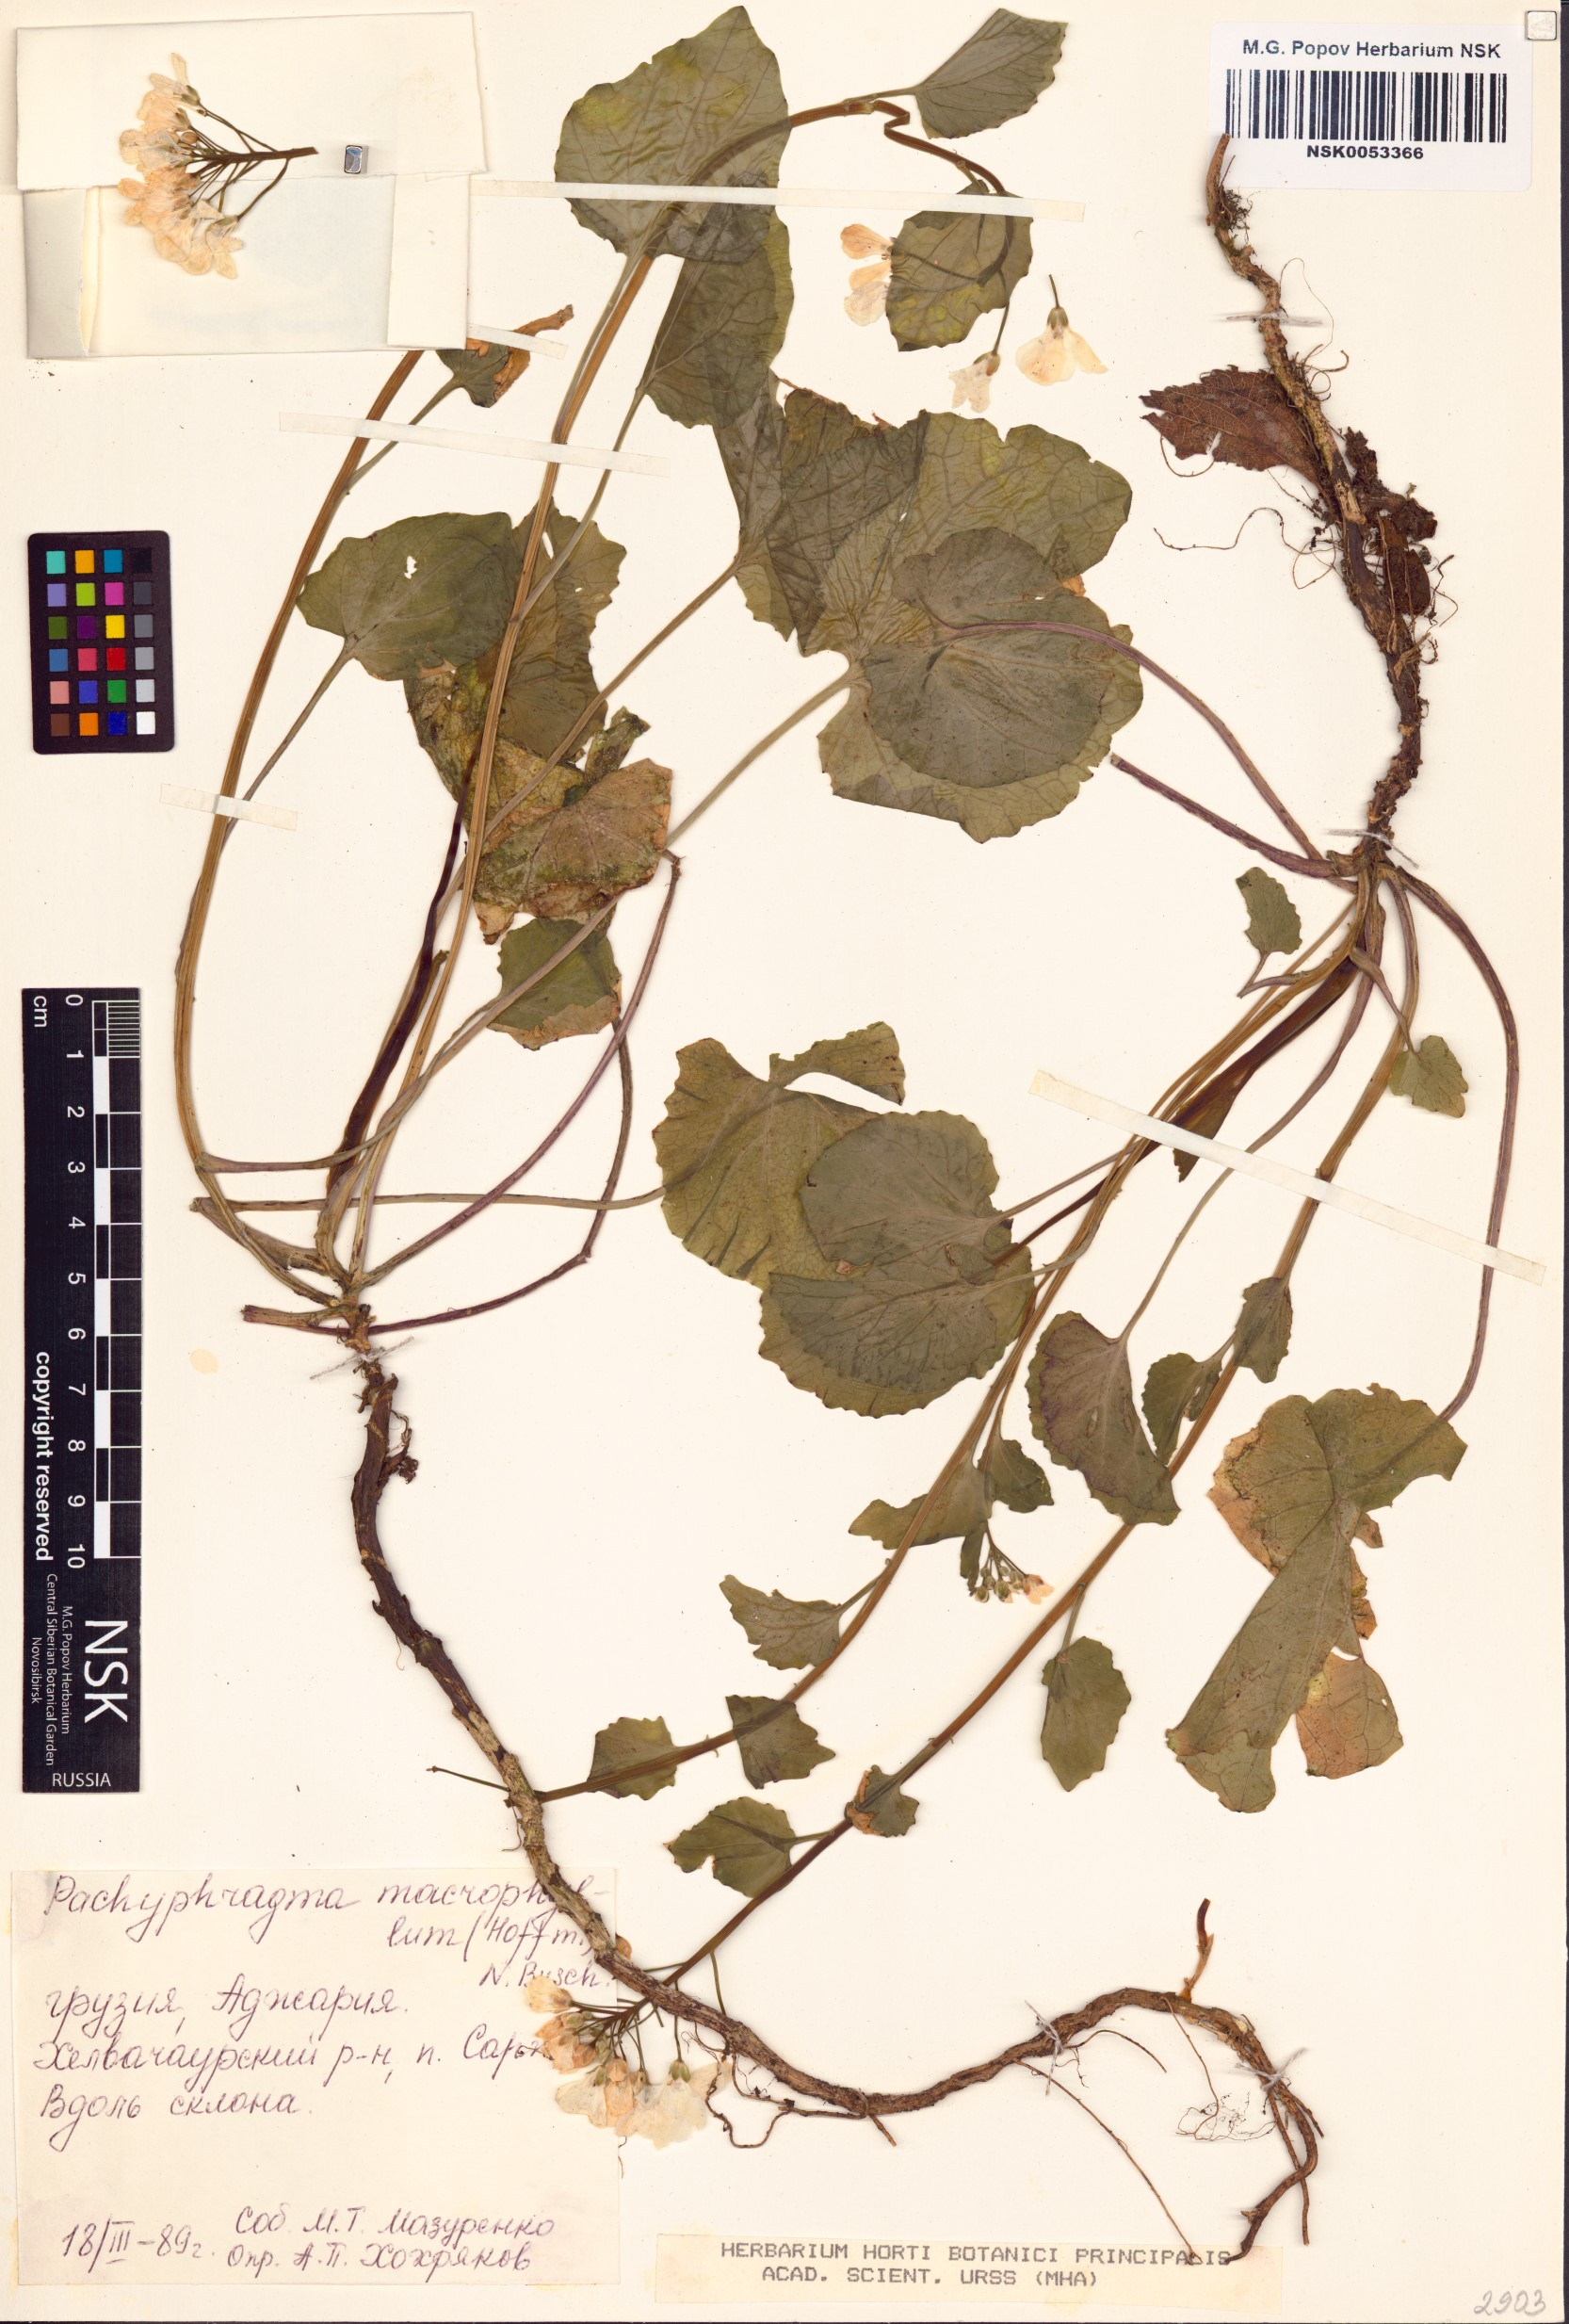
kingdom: Plantae
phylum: Tracheophyta
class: Magnoliopsida
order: Brassicales
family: Brassicaceae
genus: Pachyphragma
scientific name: Pachyphragma macrophyllum
